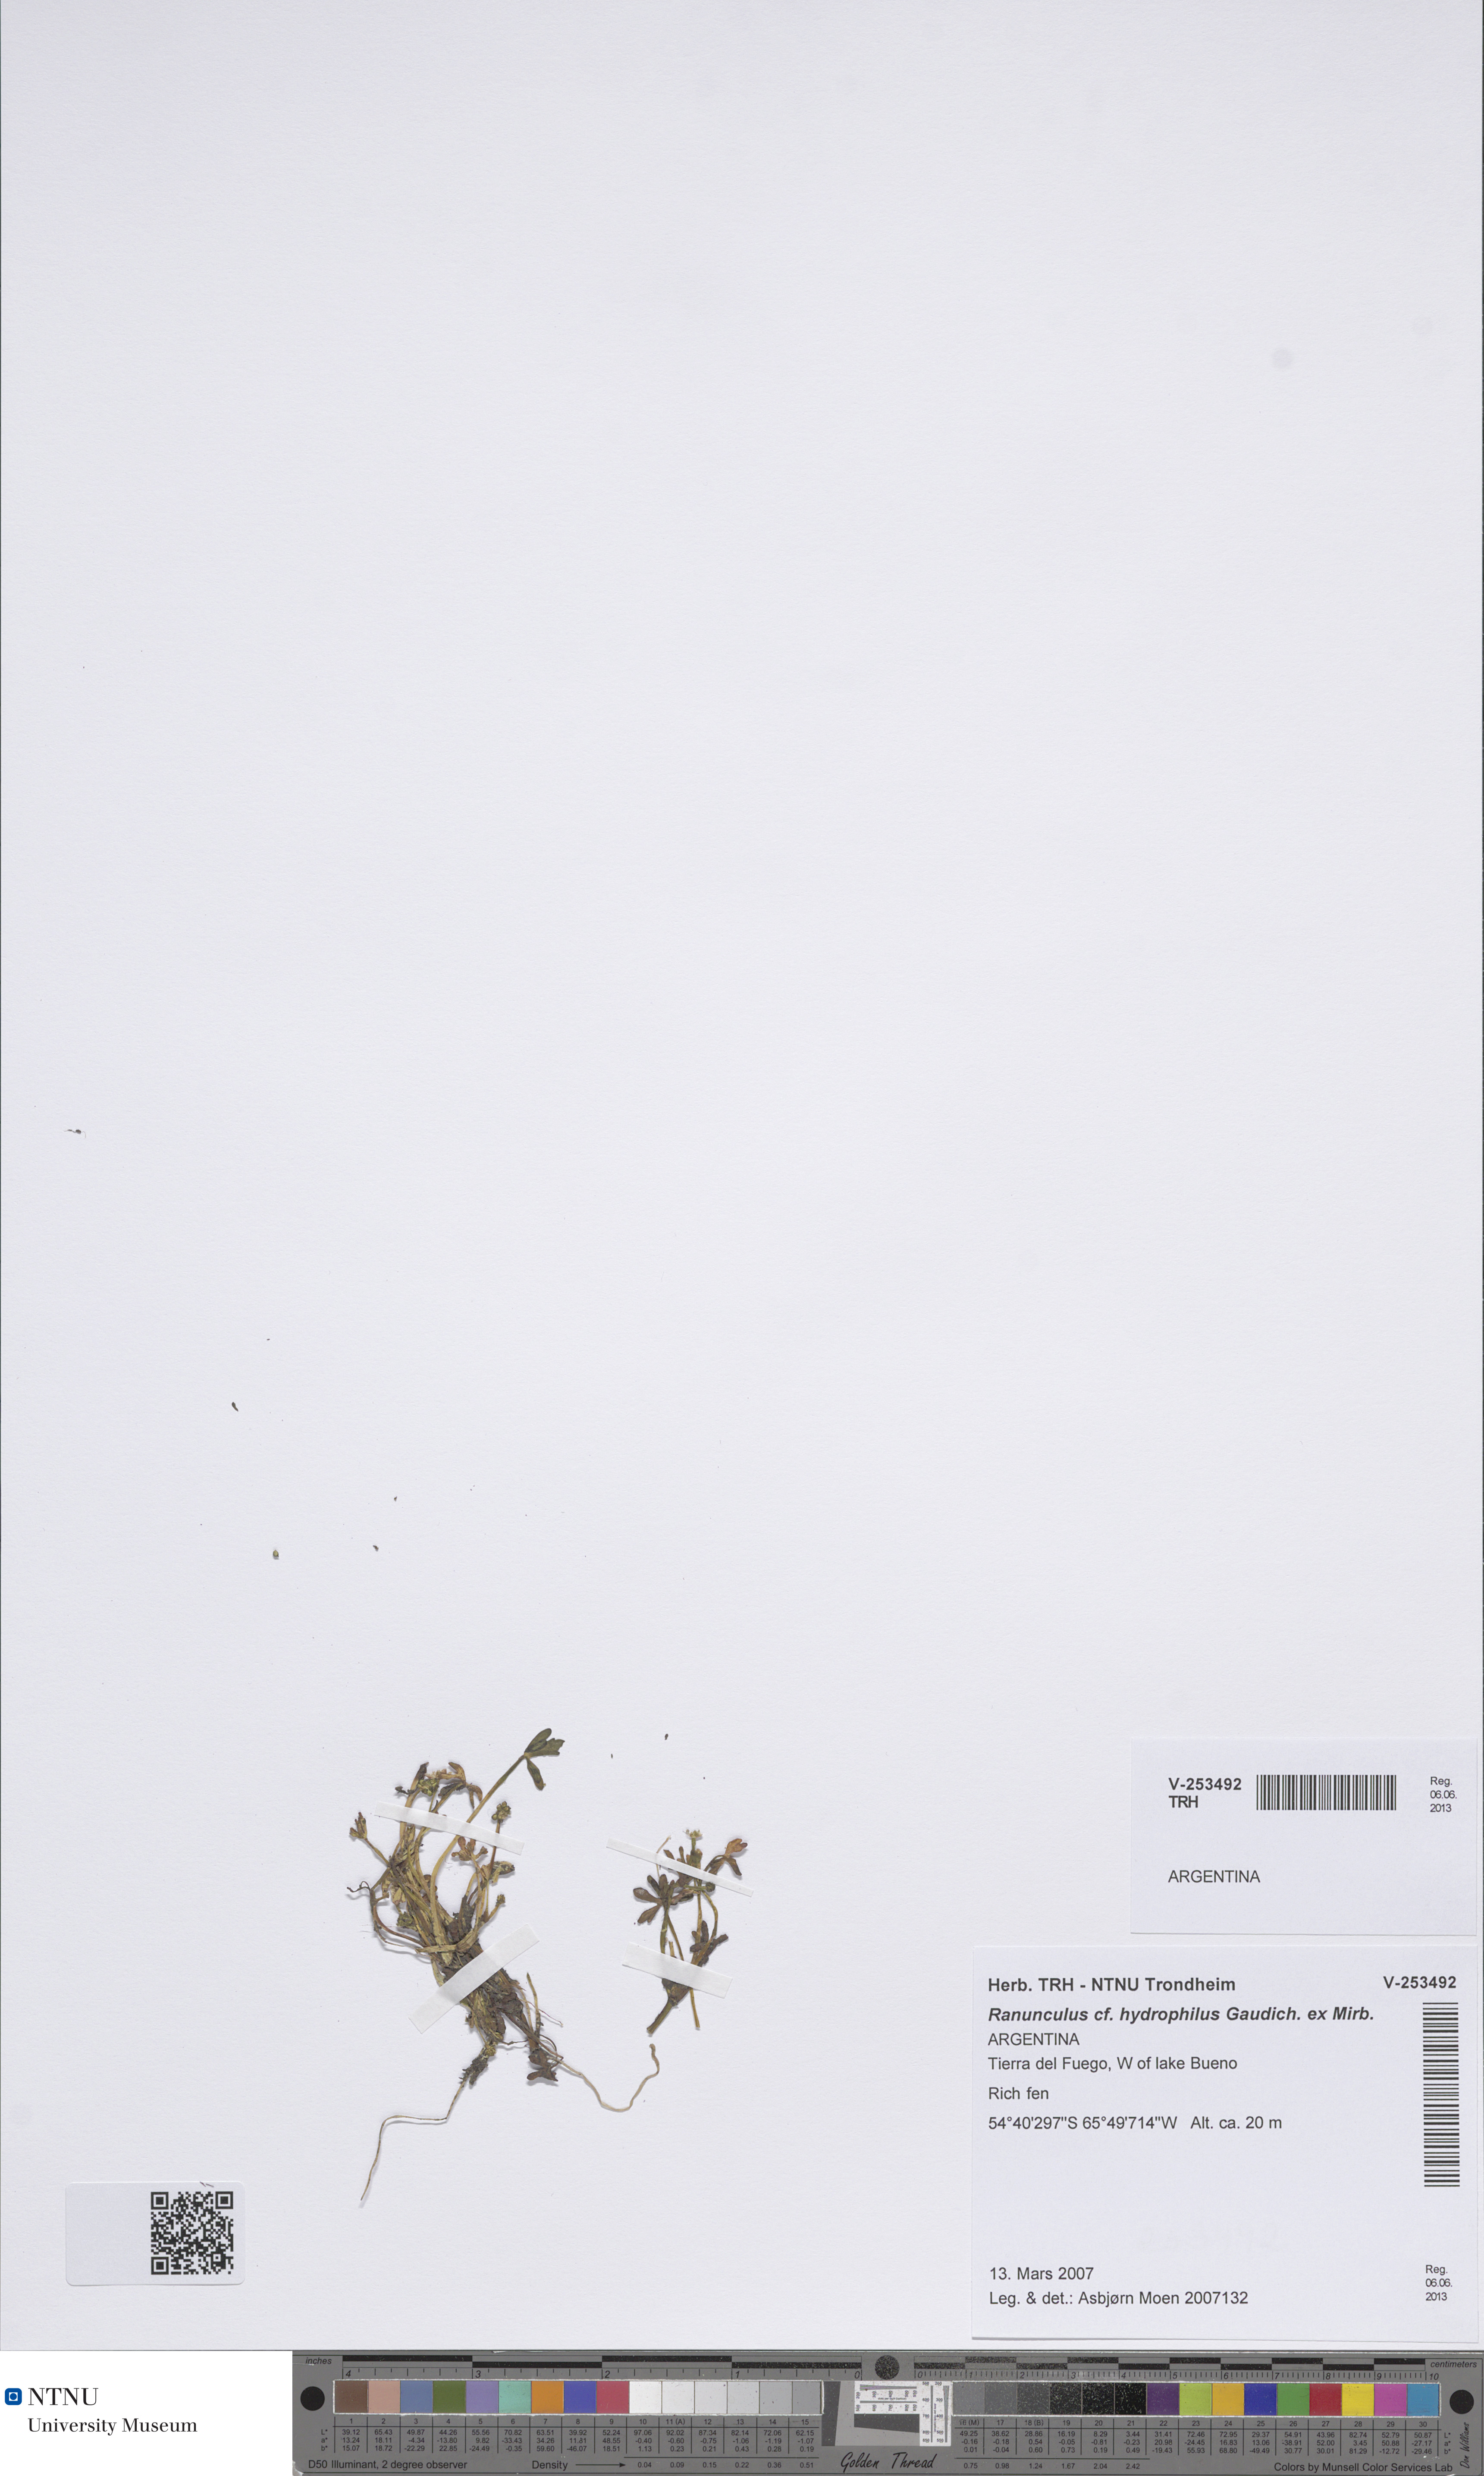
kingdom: Plantae
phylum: Tracheophyta
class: Magnoliopsida
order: Ranunculales
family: Ranunculaceae
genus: Ranunculus
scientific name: Ranunculus hydrophilus
